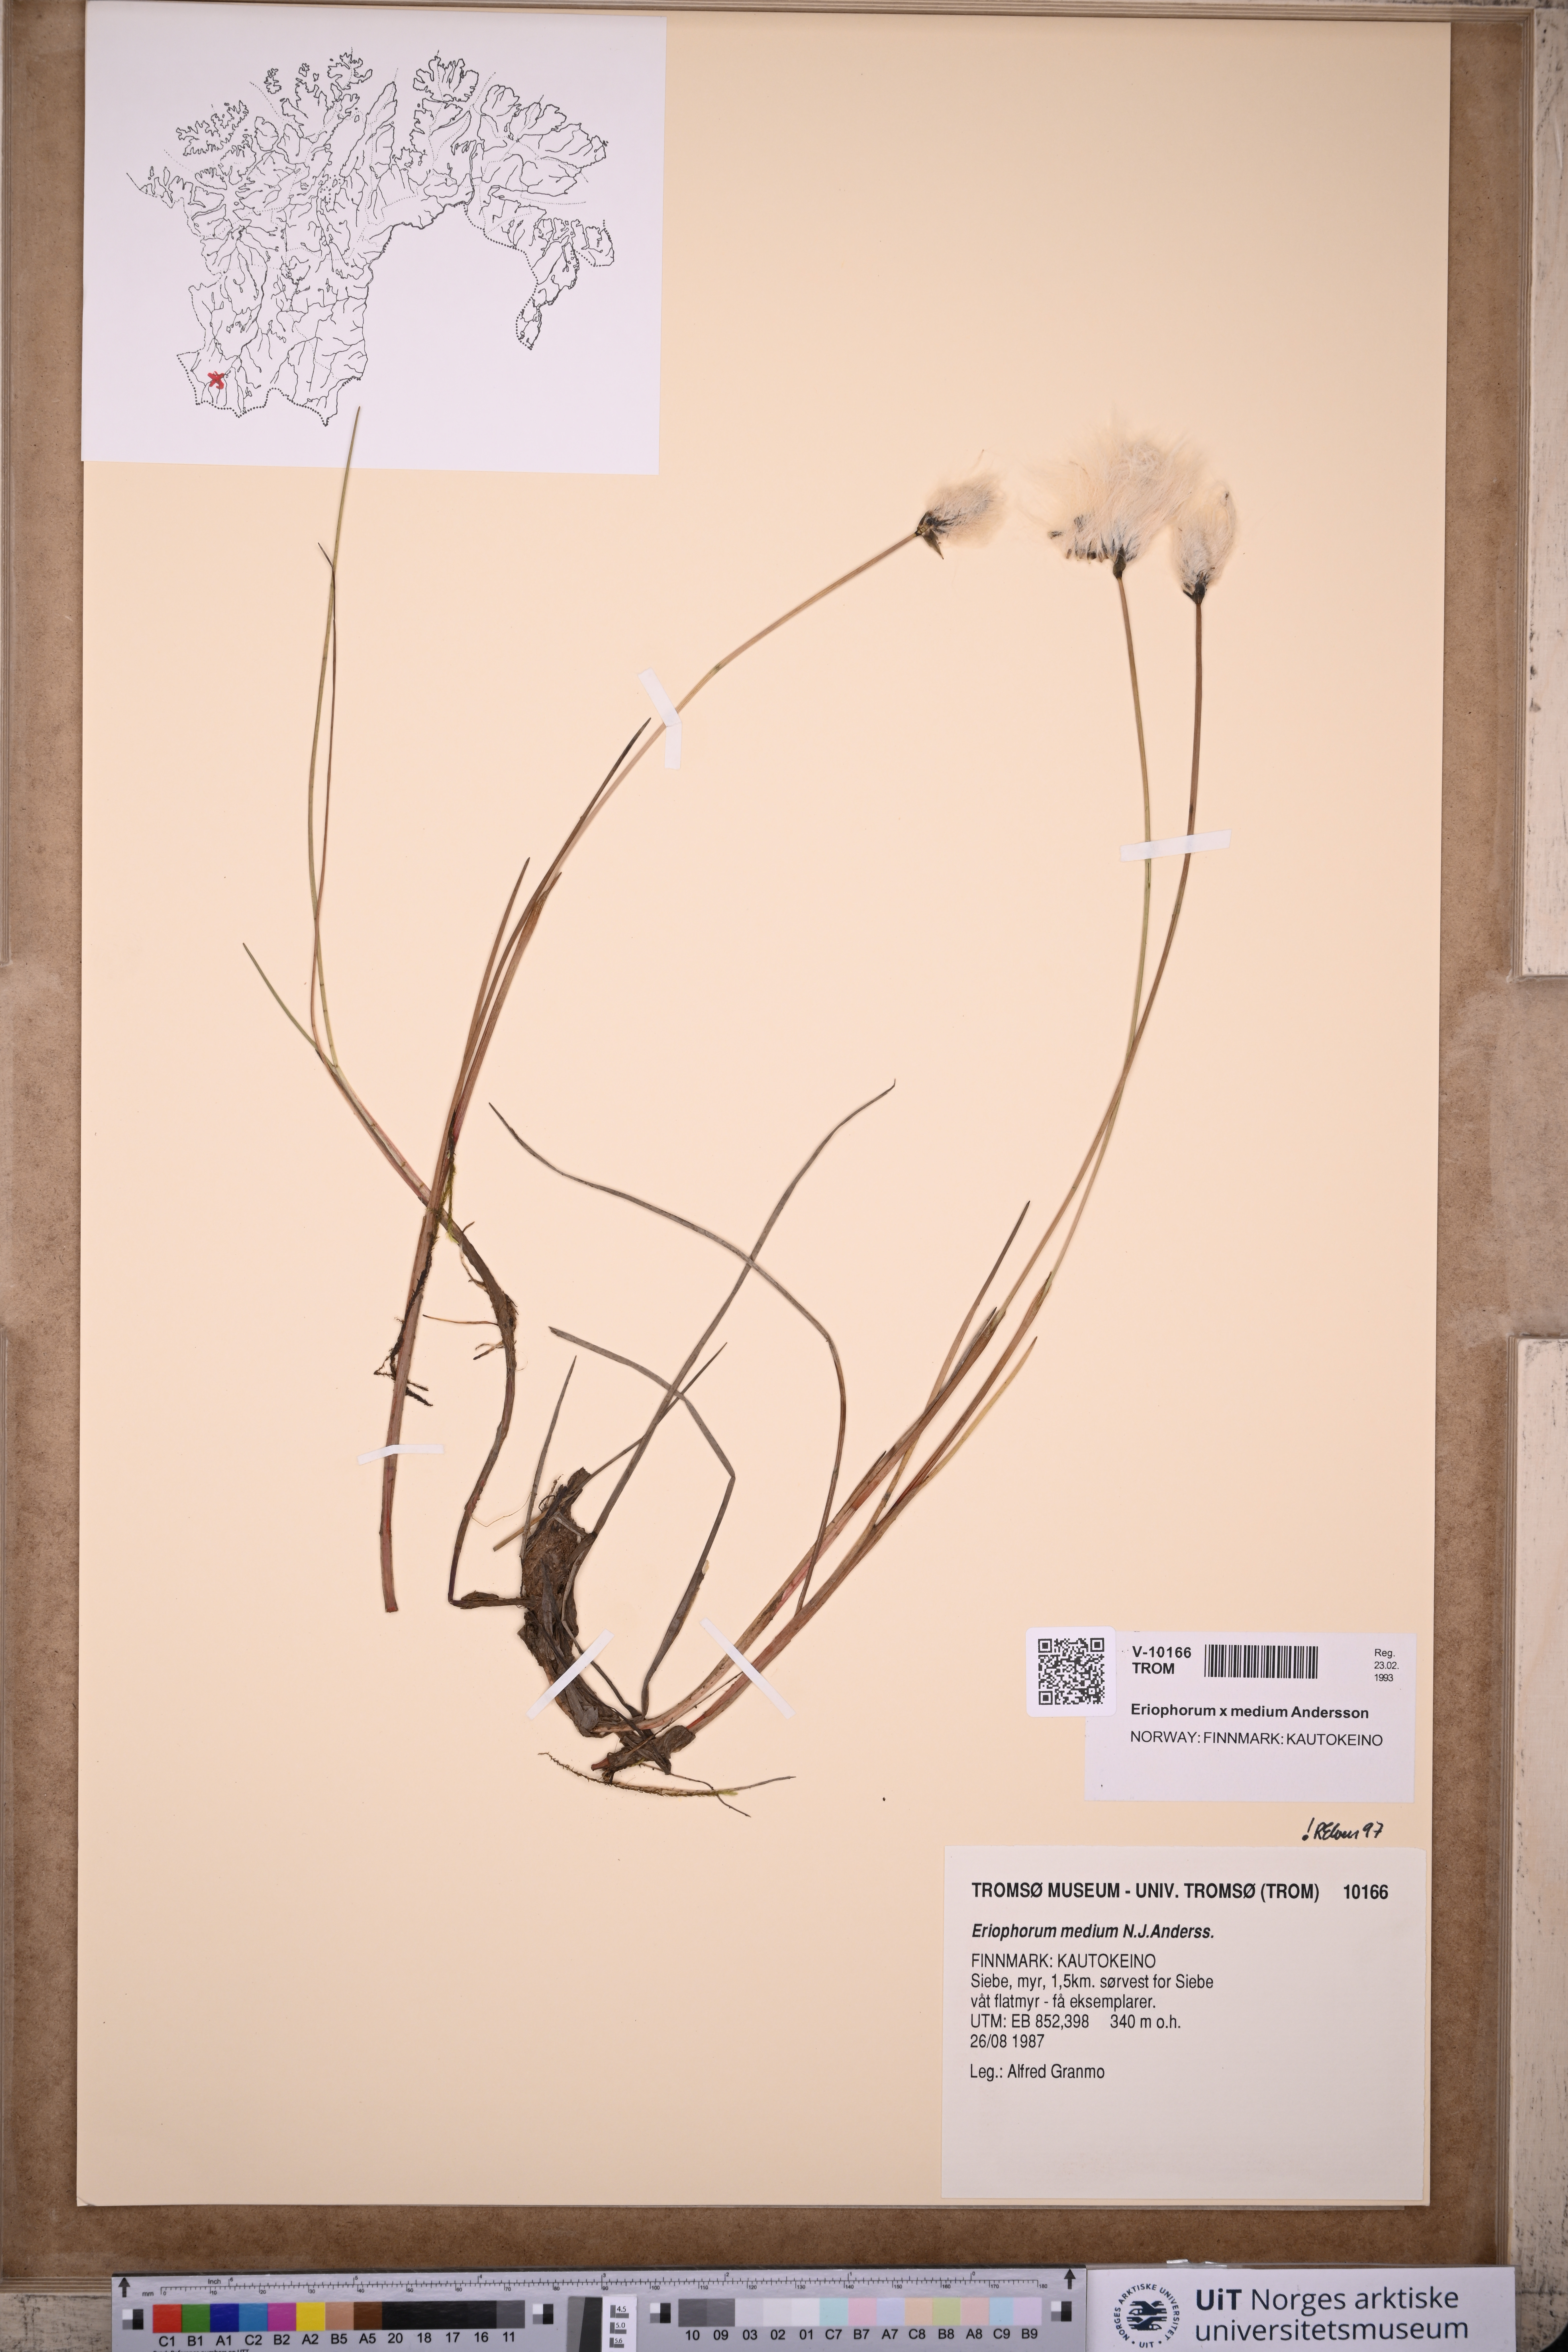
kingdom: Plantae
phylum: Tracheophyta
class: Liliopsida
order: Poales
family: Cyperaceae
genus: Eriophorum
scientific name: Eriophorum medium
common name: Intermediate cottongrass
